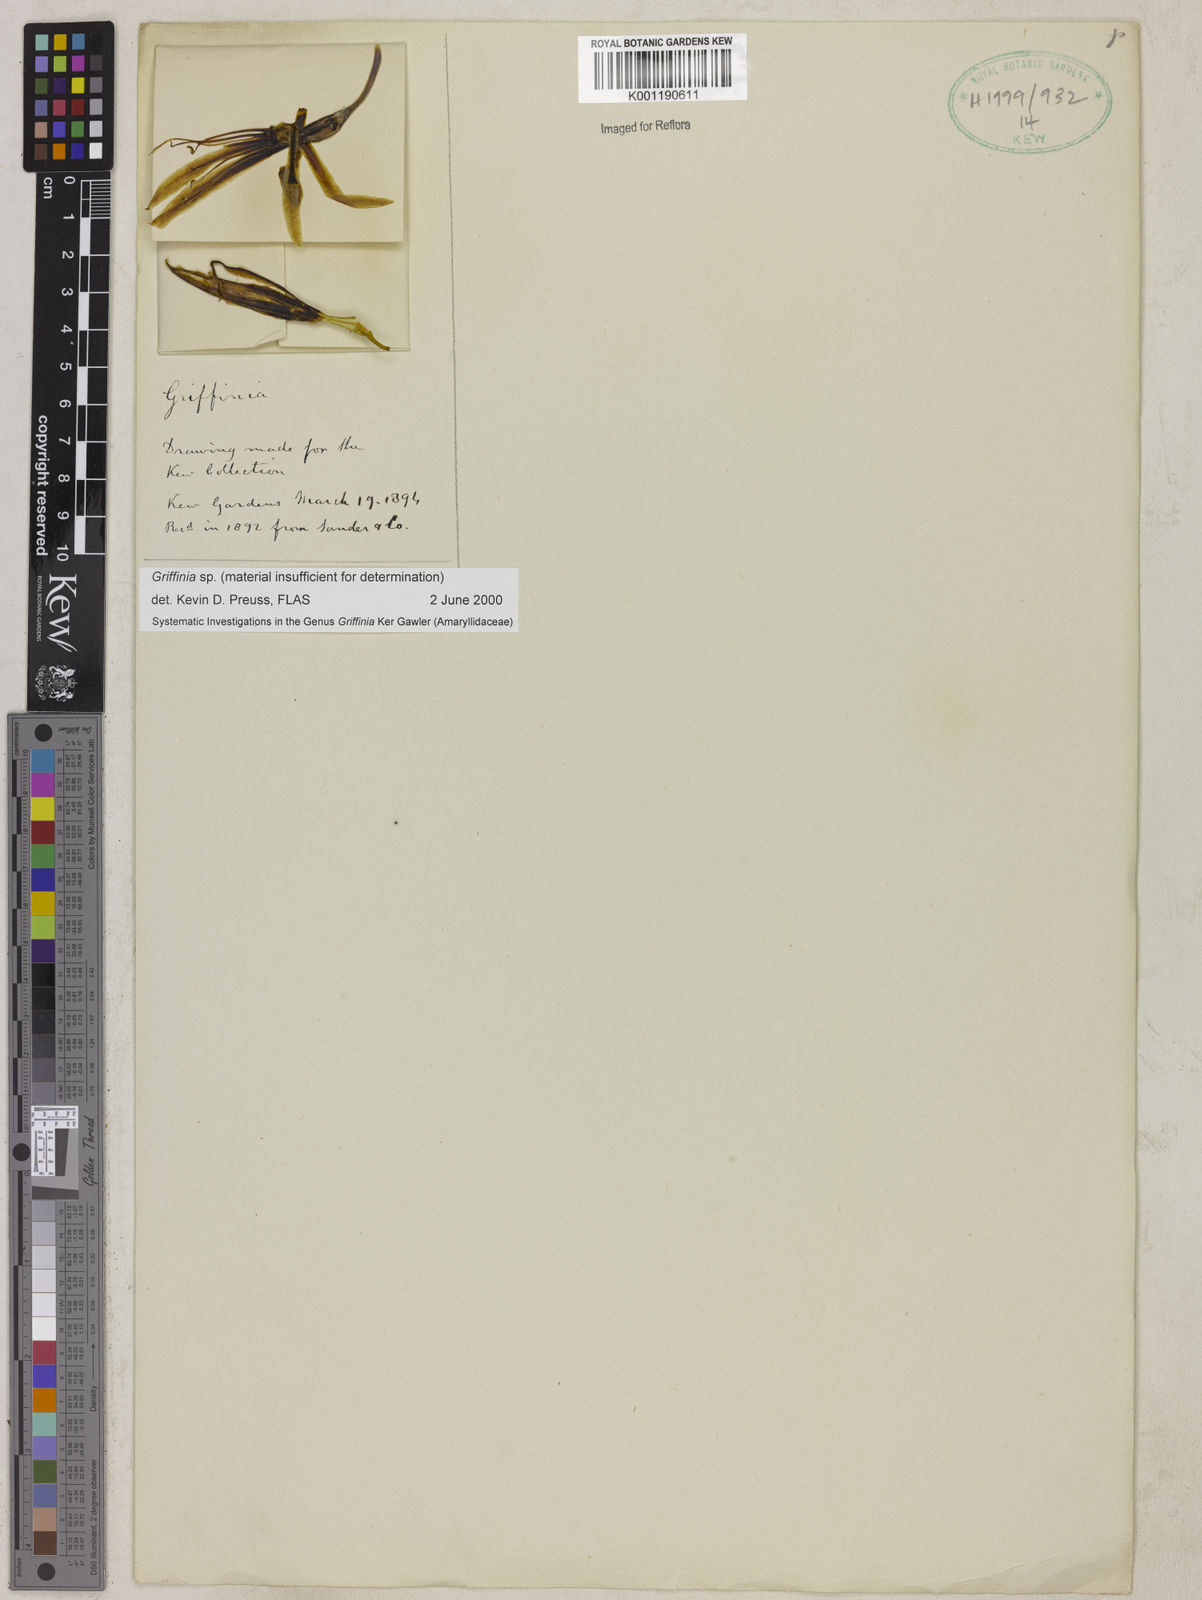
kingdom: Plantae
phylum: Tracheophyta
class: Liliopsida
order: Asparagales
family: Amaryllidaceae
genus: Griffinia
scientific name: Griffinia
